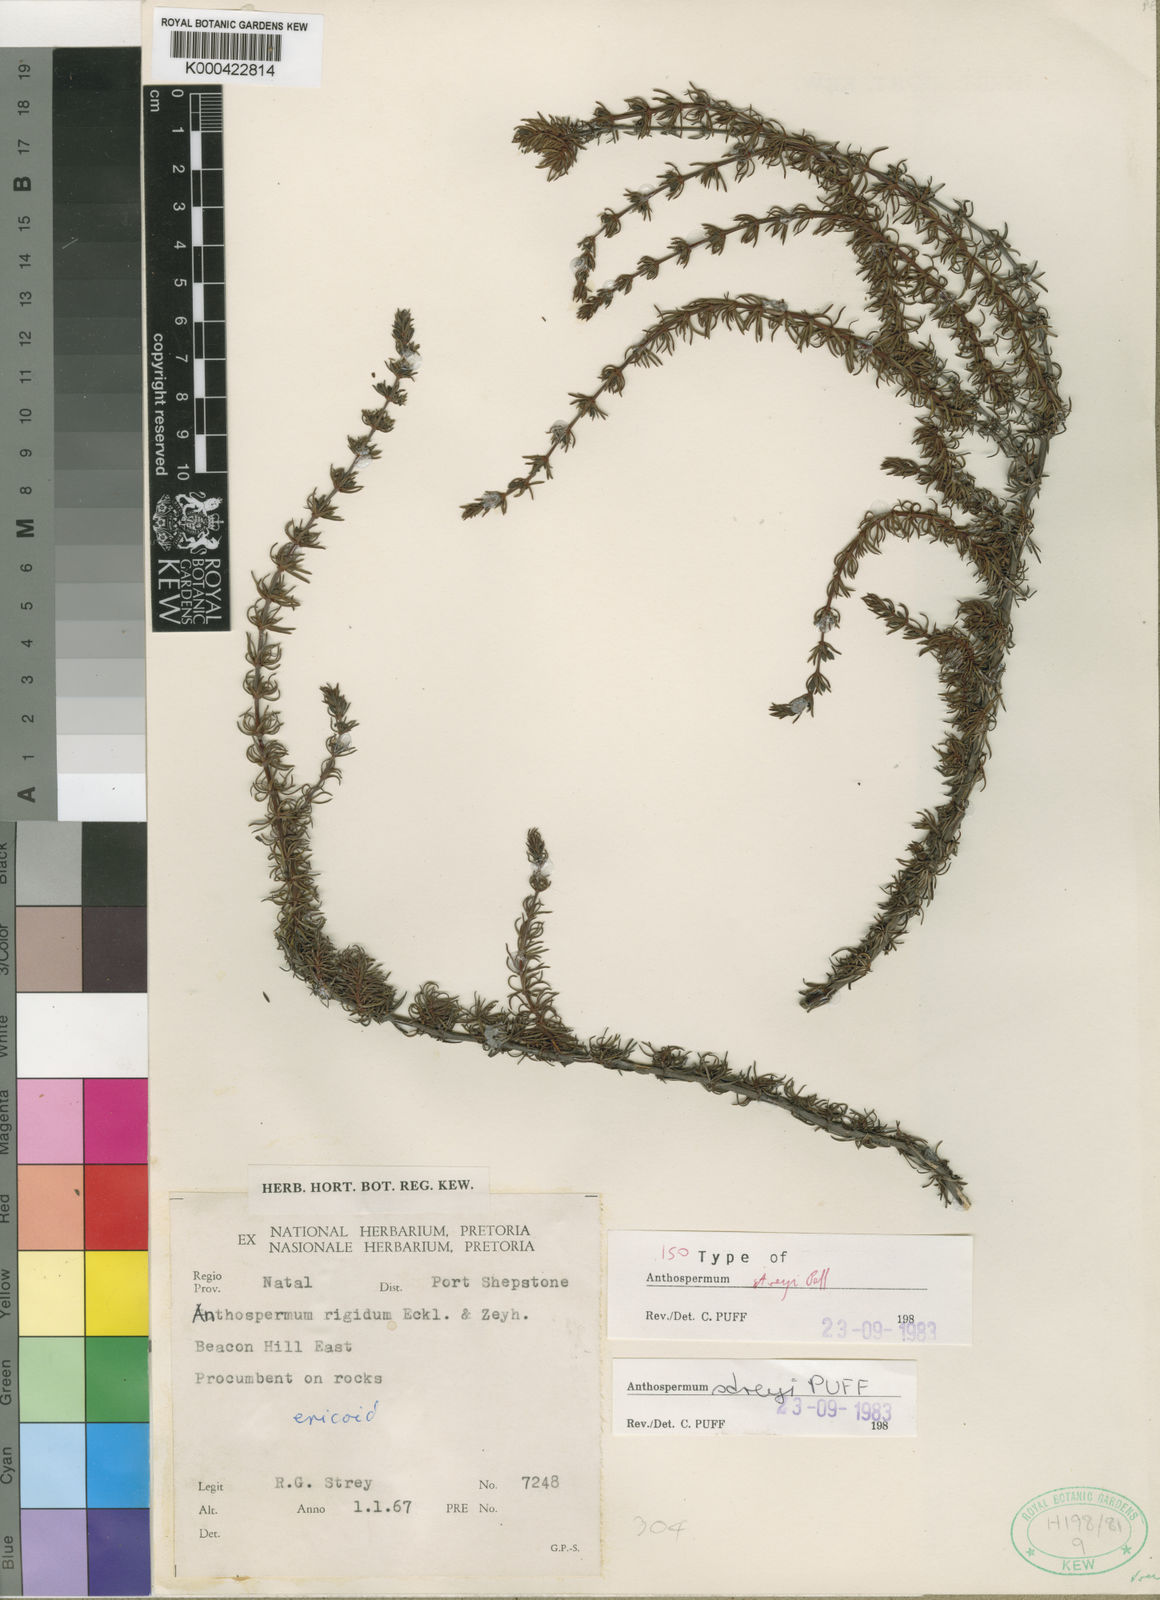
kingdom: Plantae
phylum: Tracheophyta
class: Magnoliopsida
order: Gentianales
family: Rubiaceae
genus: Anthospermum
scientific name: Anthospermum galioides
